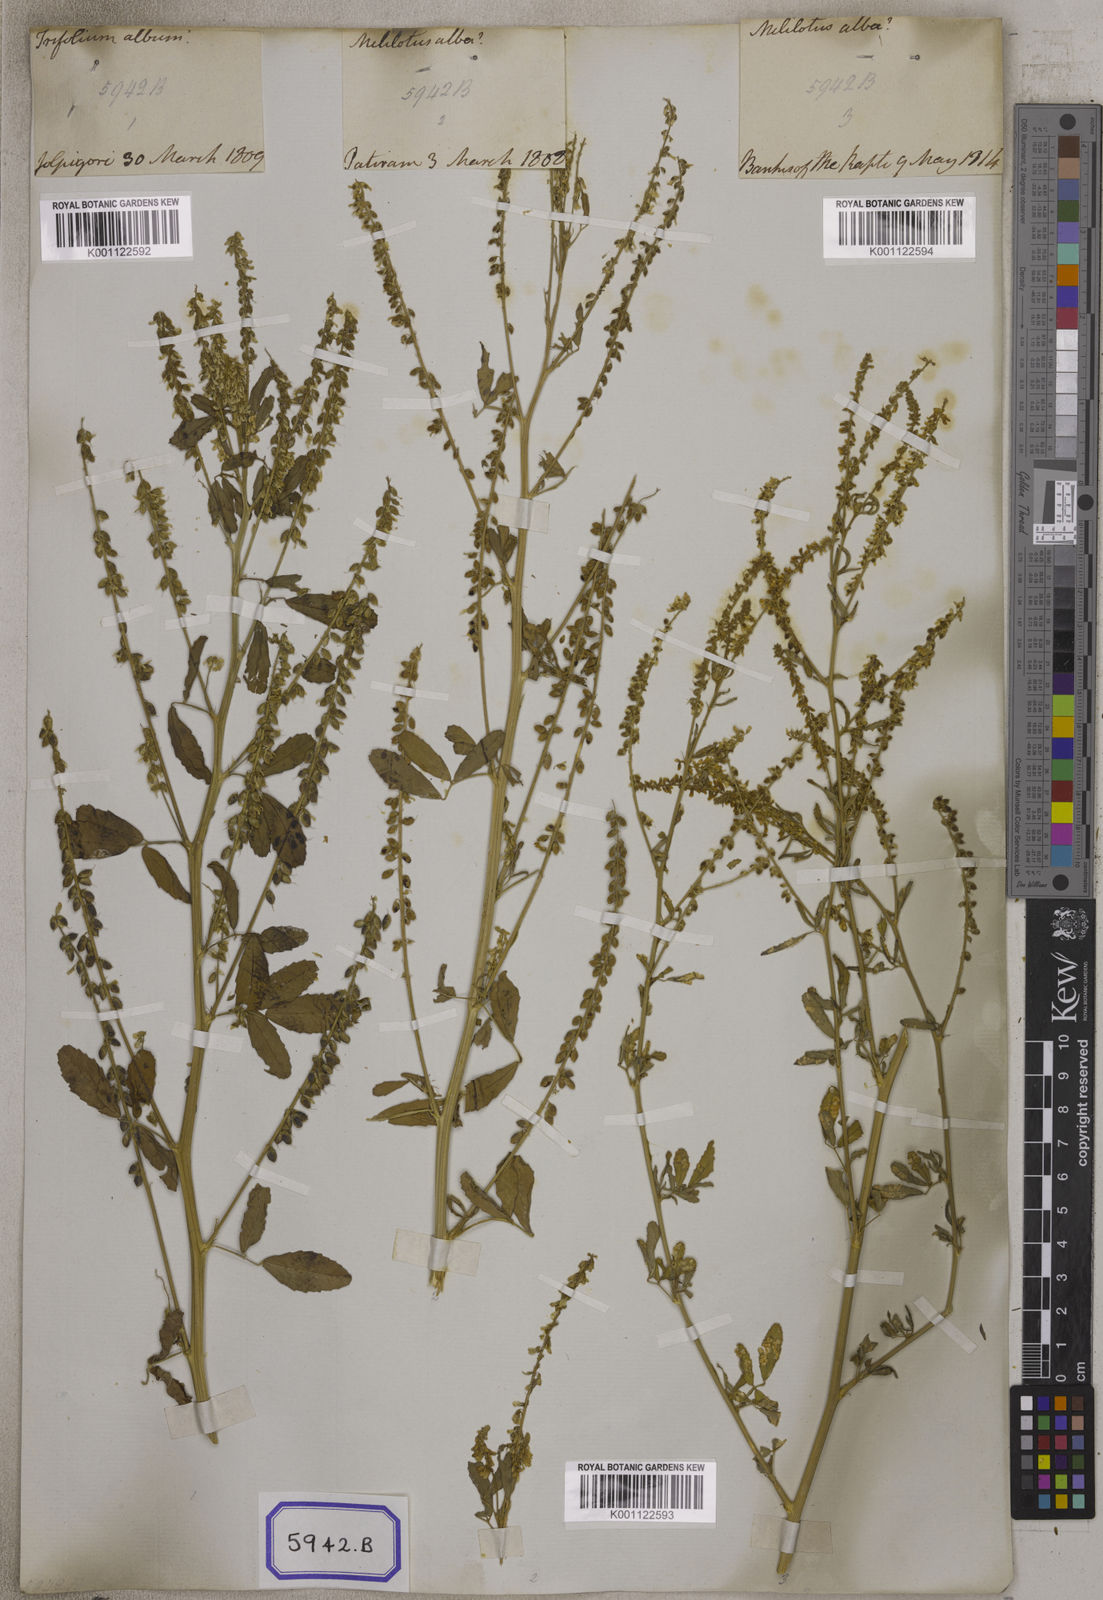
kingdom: Plantae
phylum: Tracheophyta
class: Magnoliopsida
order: Fabales
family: Fabaceae
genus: Melilotus
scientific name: Melilotus altissimus
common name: Tall melilot
